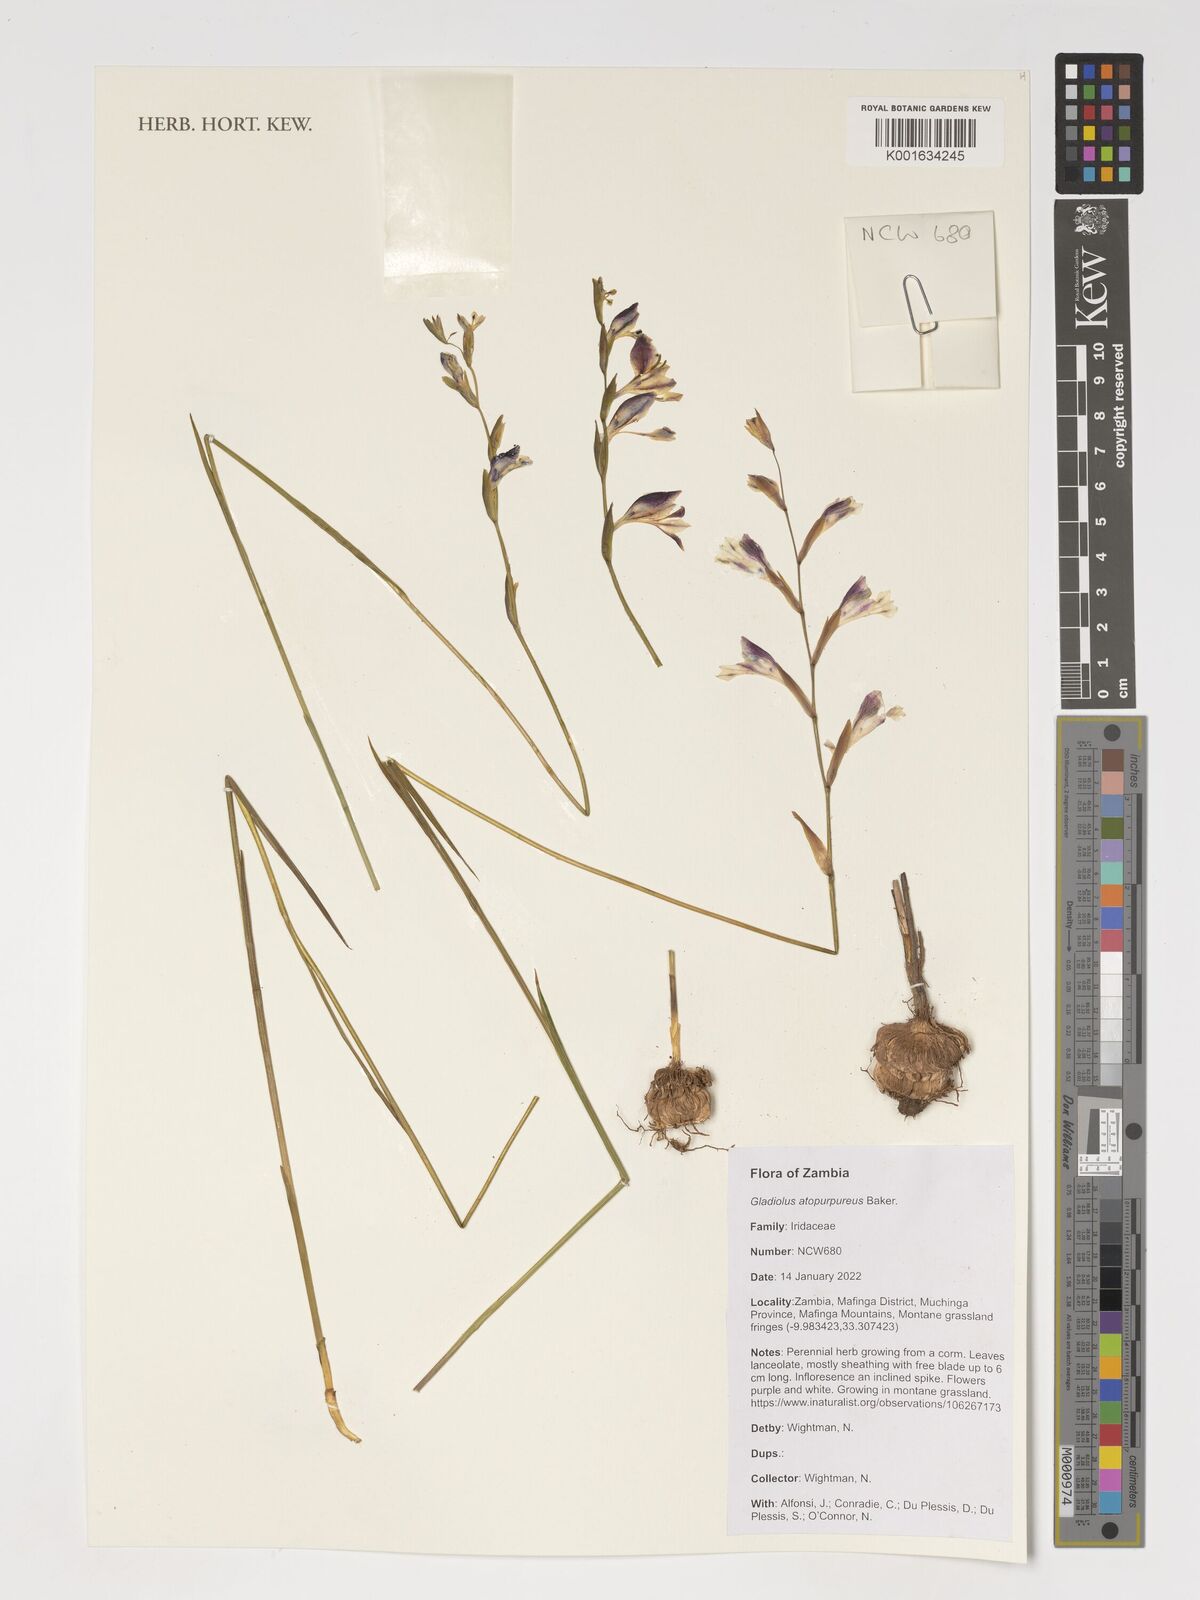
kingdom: Plantae
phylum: Tracheophyta
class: Liliopsida
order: Asparagales
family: Iridaceae
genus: Gladiolus
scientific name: Gladiolus atropurpureus
